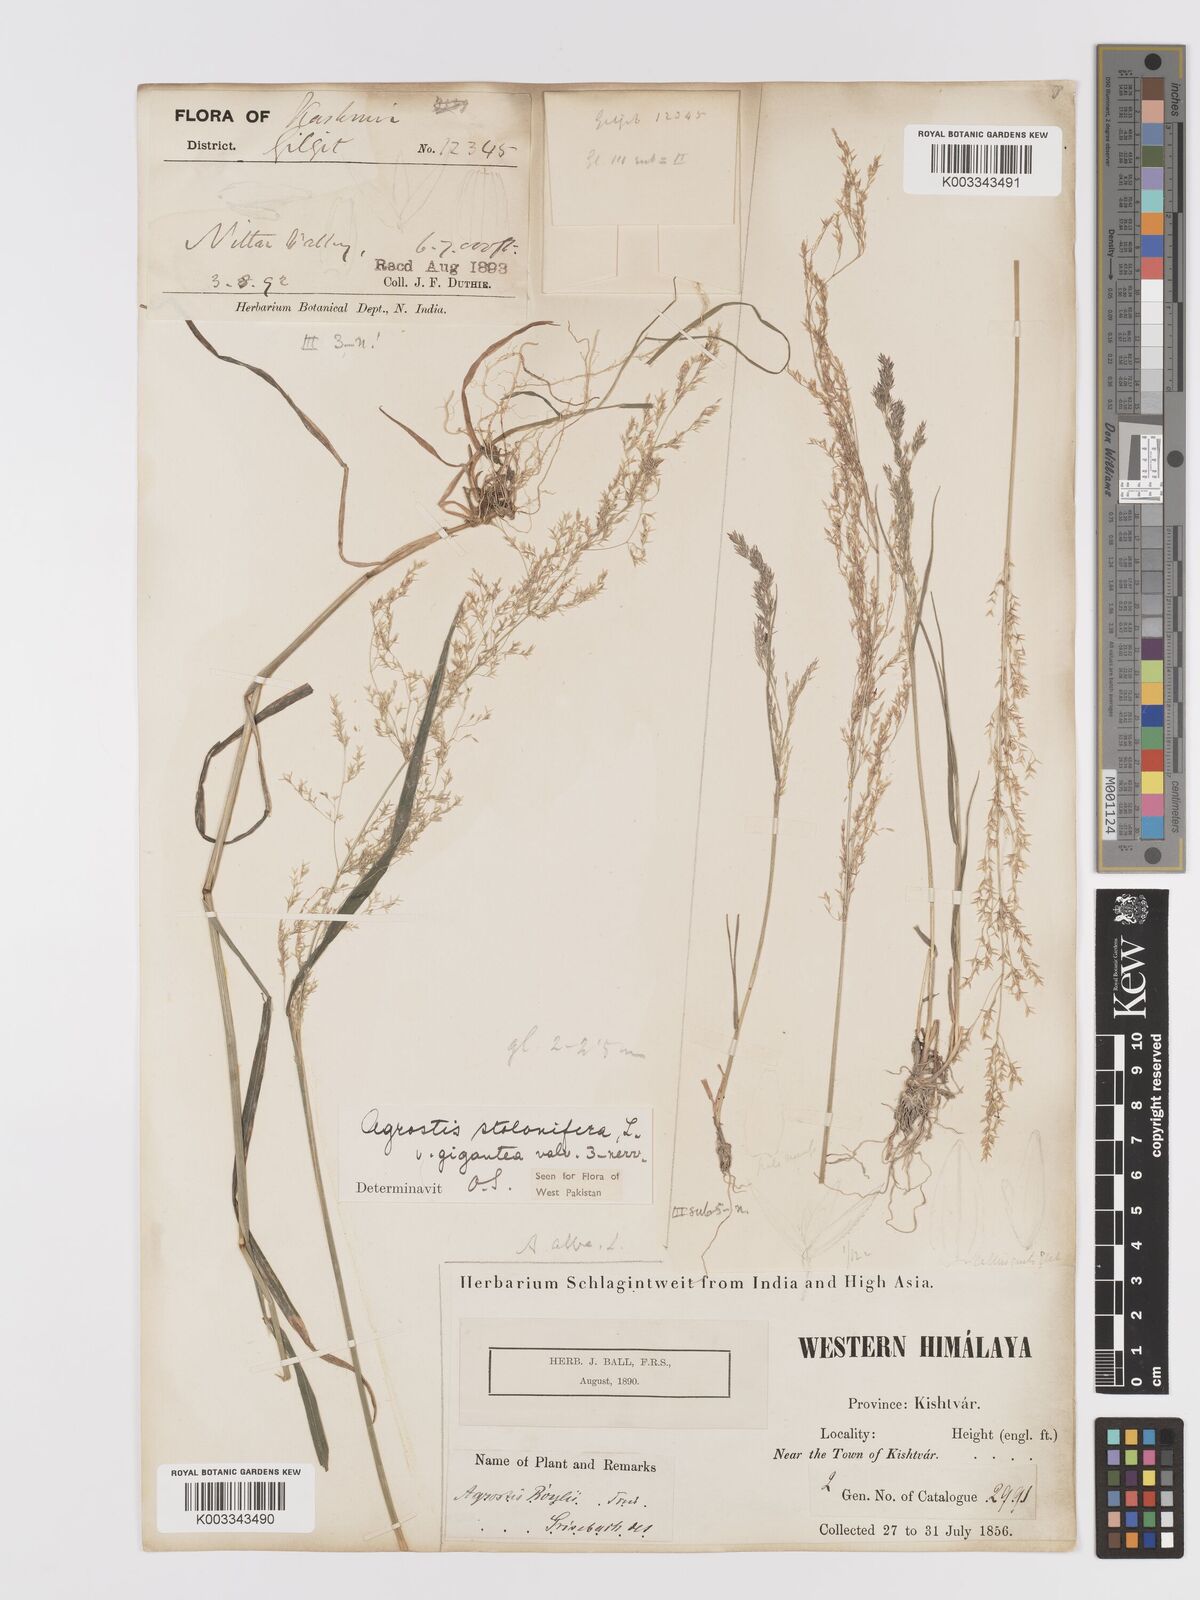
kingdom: Plantae
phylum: Tracheophyta
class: Liliopsida
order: Poales
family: Poaceae
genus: Agrostis
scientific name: Agrostis gigantea
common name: Black bent
